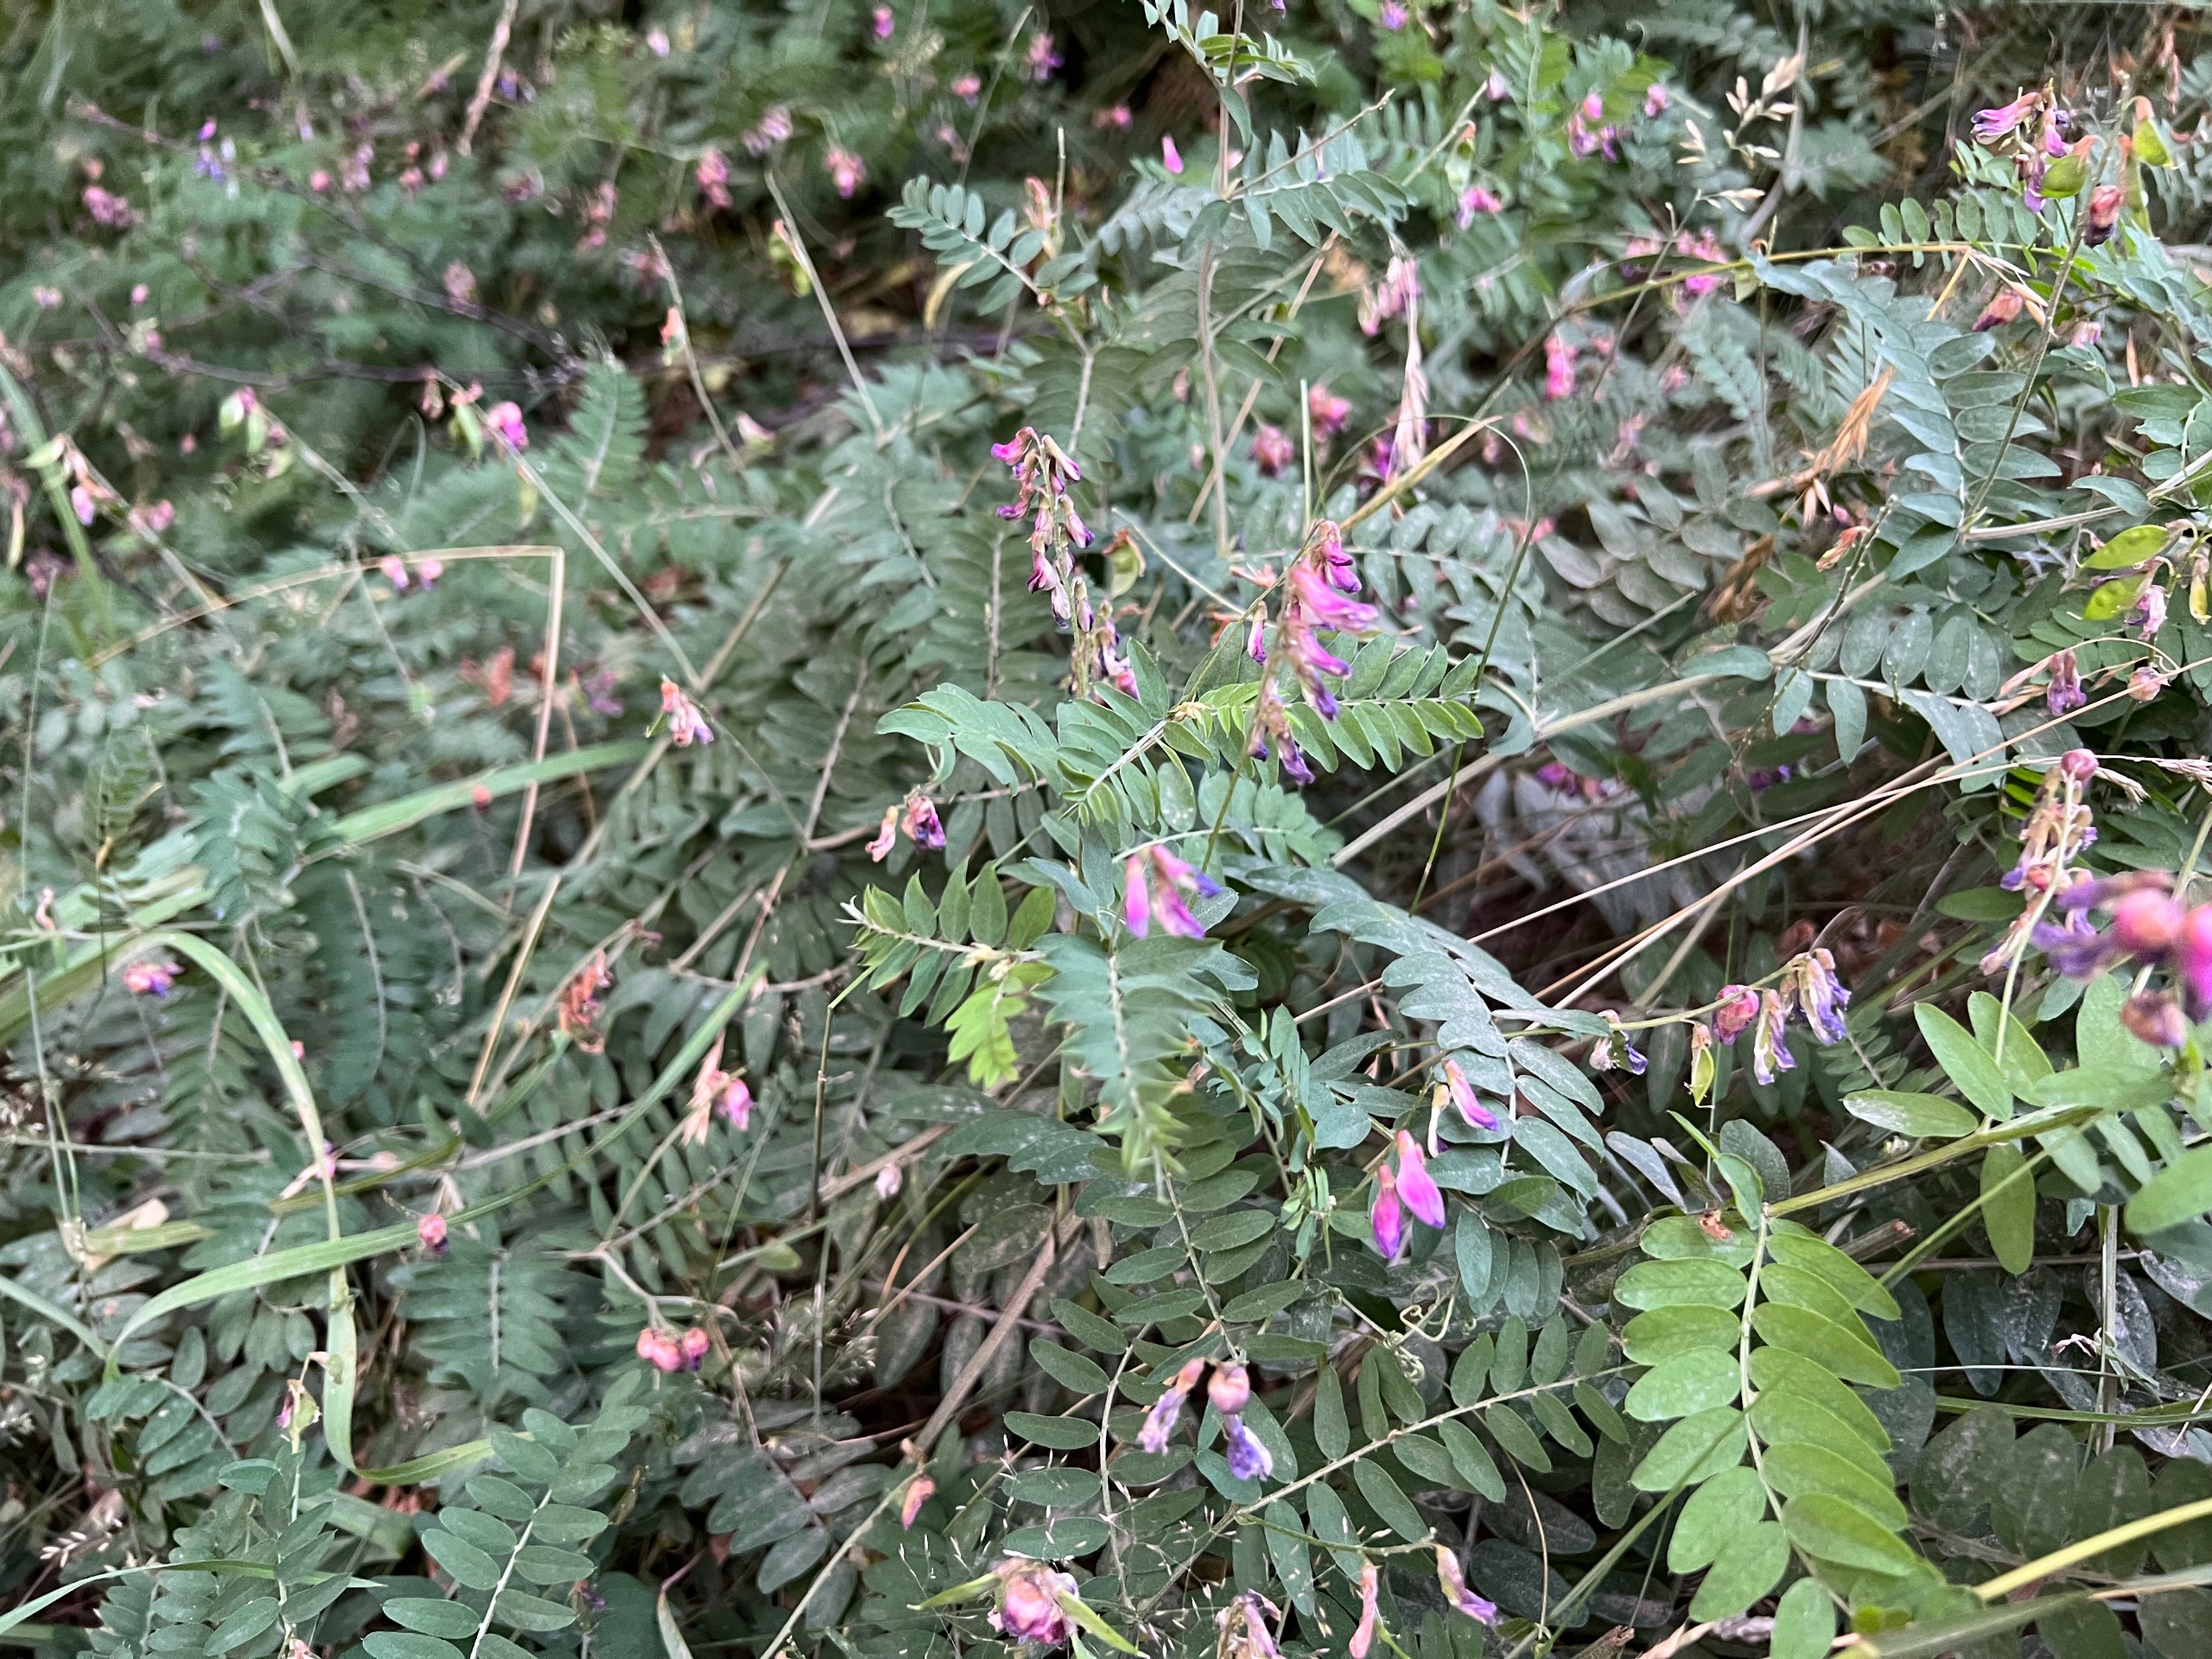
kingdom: Plantae
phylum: Tracheophyta
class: Magnoliopsida
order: Fabales
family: Fabaceae
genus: Vicia
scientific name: Vicia cassubica
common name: Kassubisk vikke
